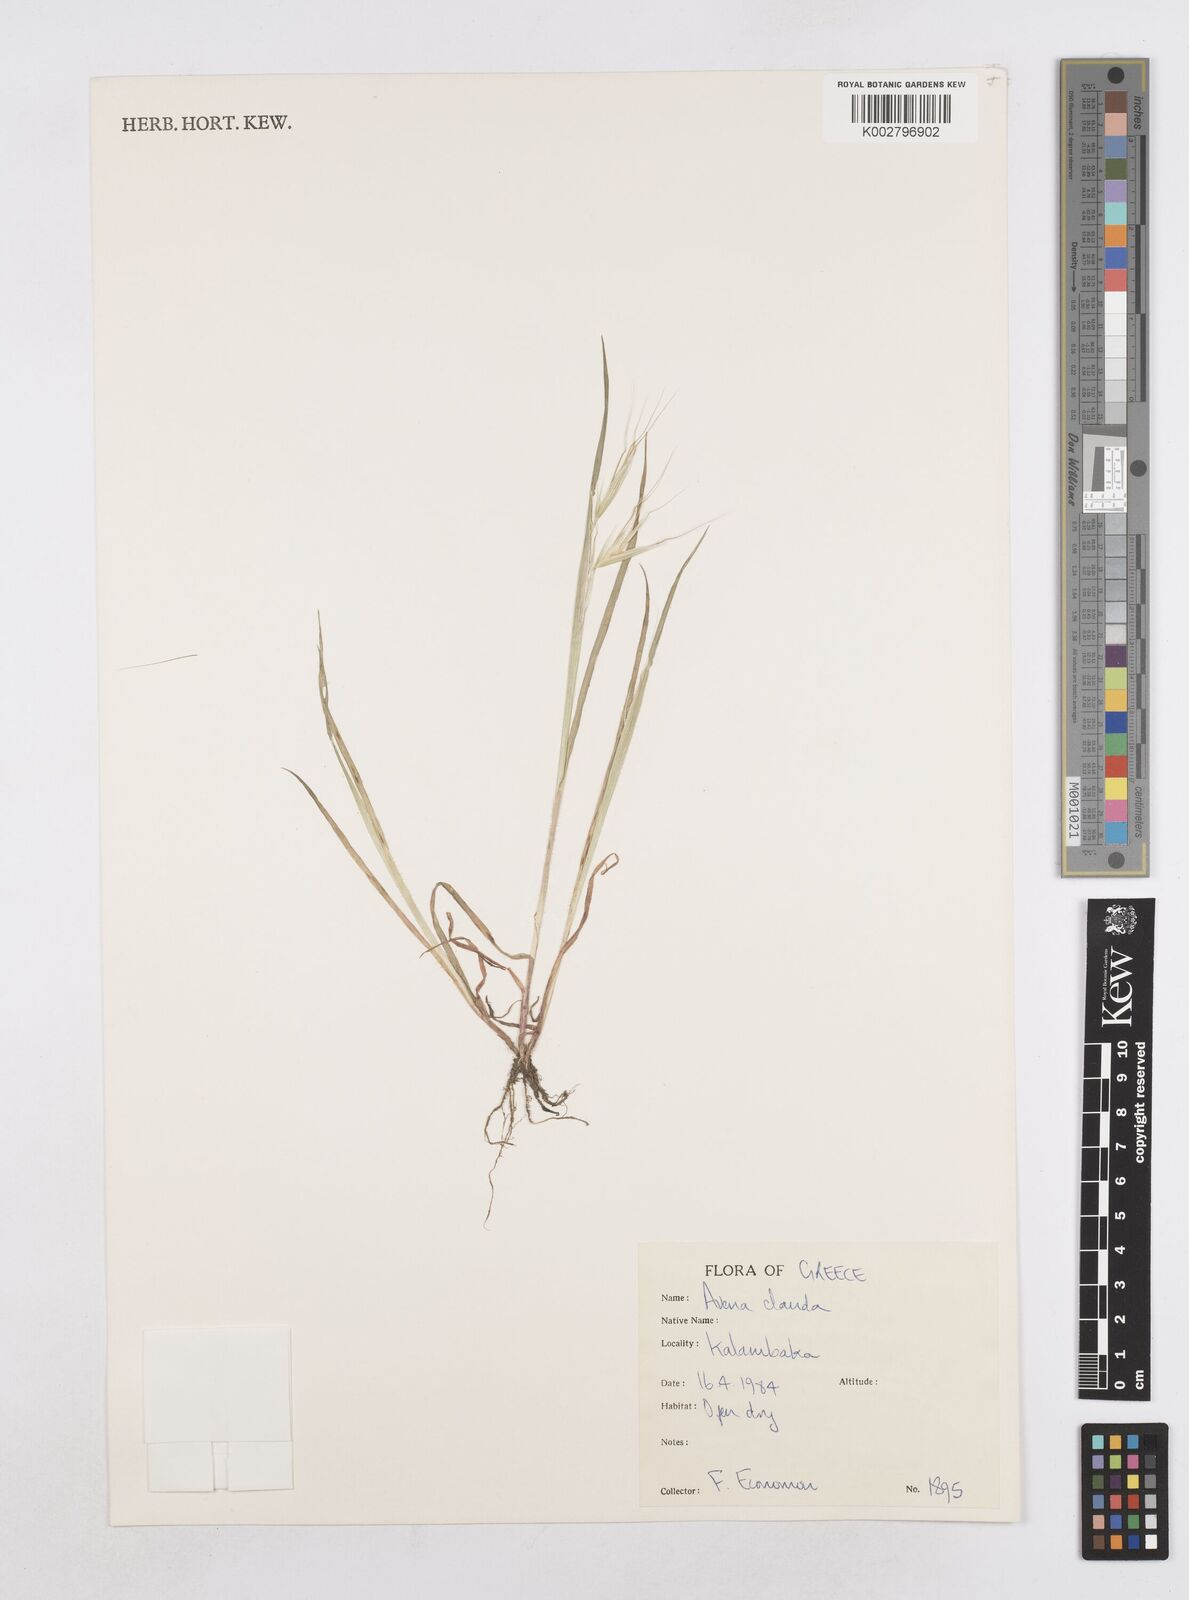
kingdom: Plantae
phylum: Tracheophyta
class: Liliopsida
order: Poales
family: Poaceae
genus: Avena
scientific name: Avena clauda
